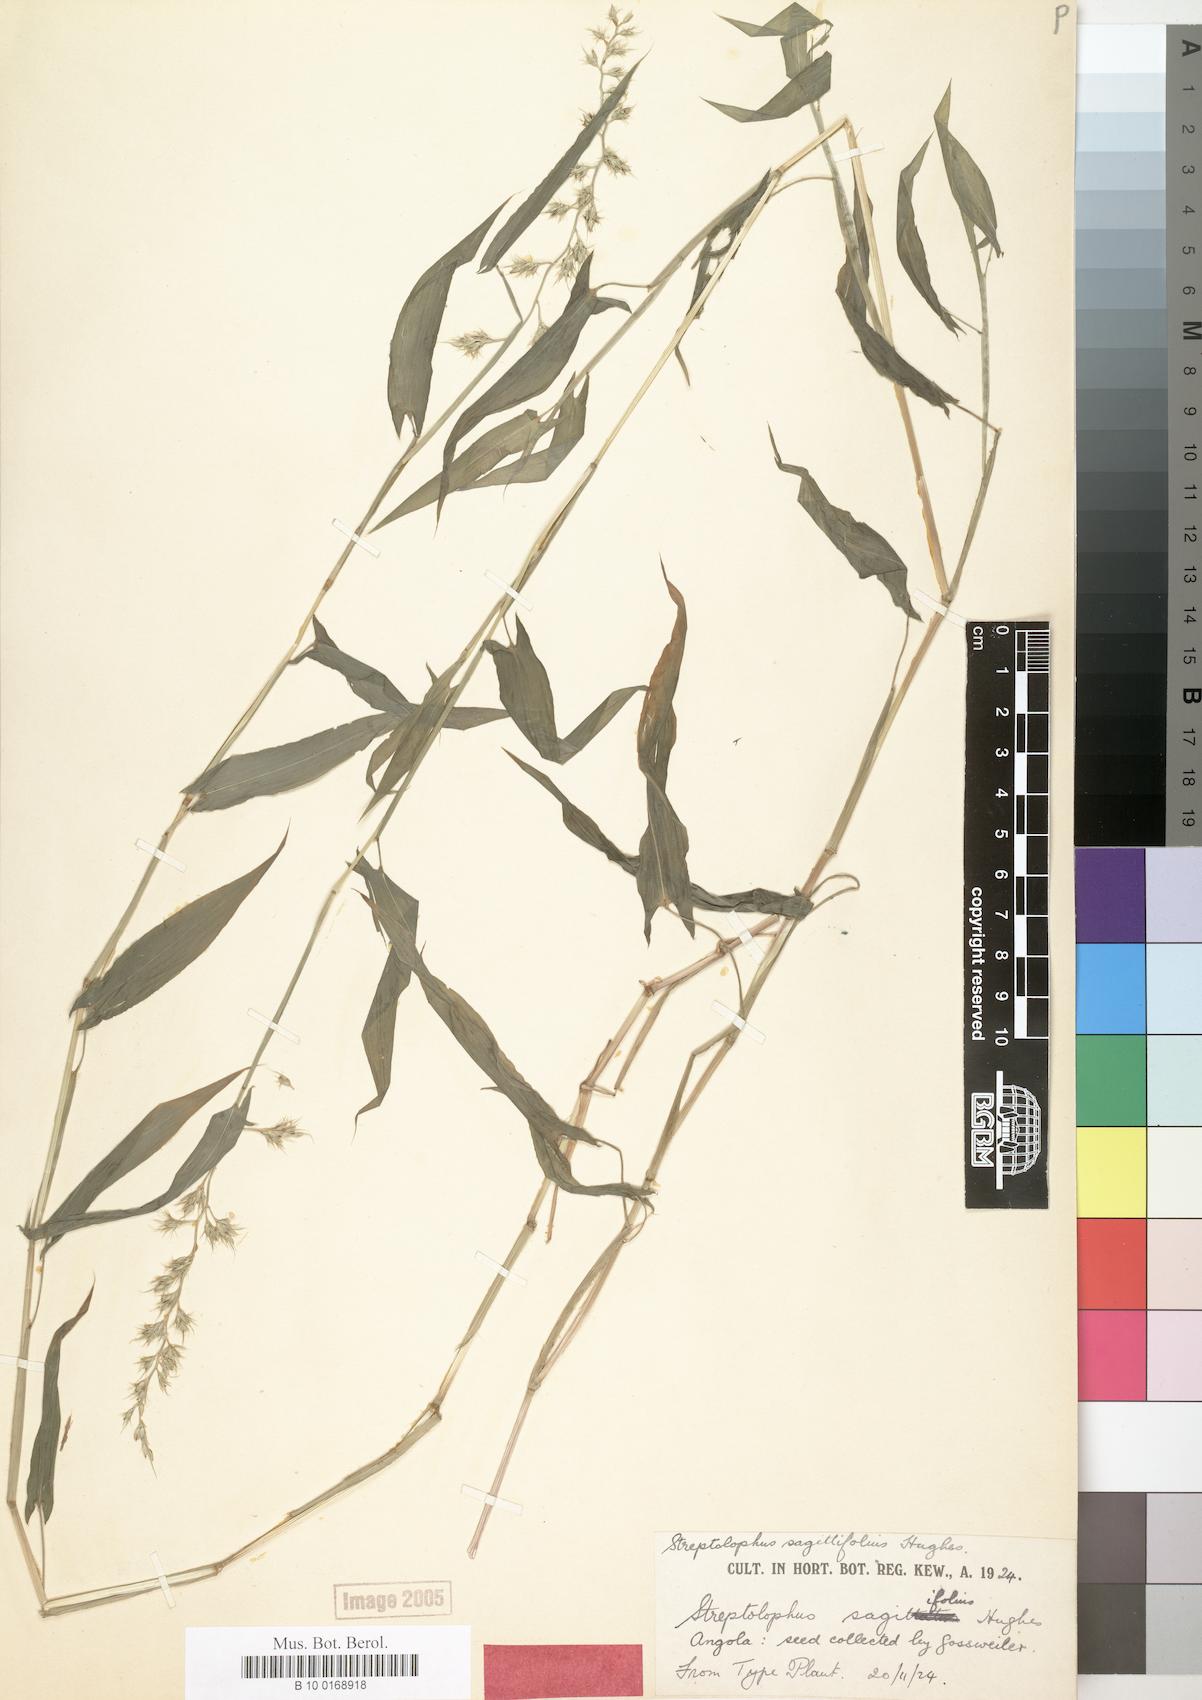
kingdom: Plantae
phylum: Tracheophyta
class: Liliopsida
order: Poales
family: Poaceae
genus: Streptolophus
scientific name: Streptolophus sagittifolius
